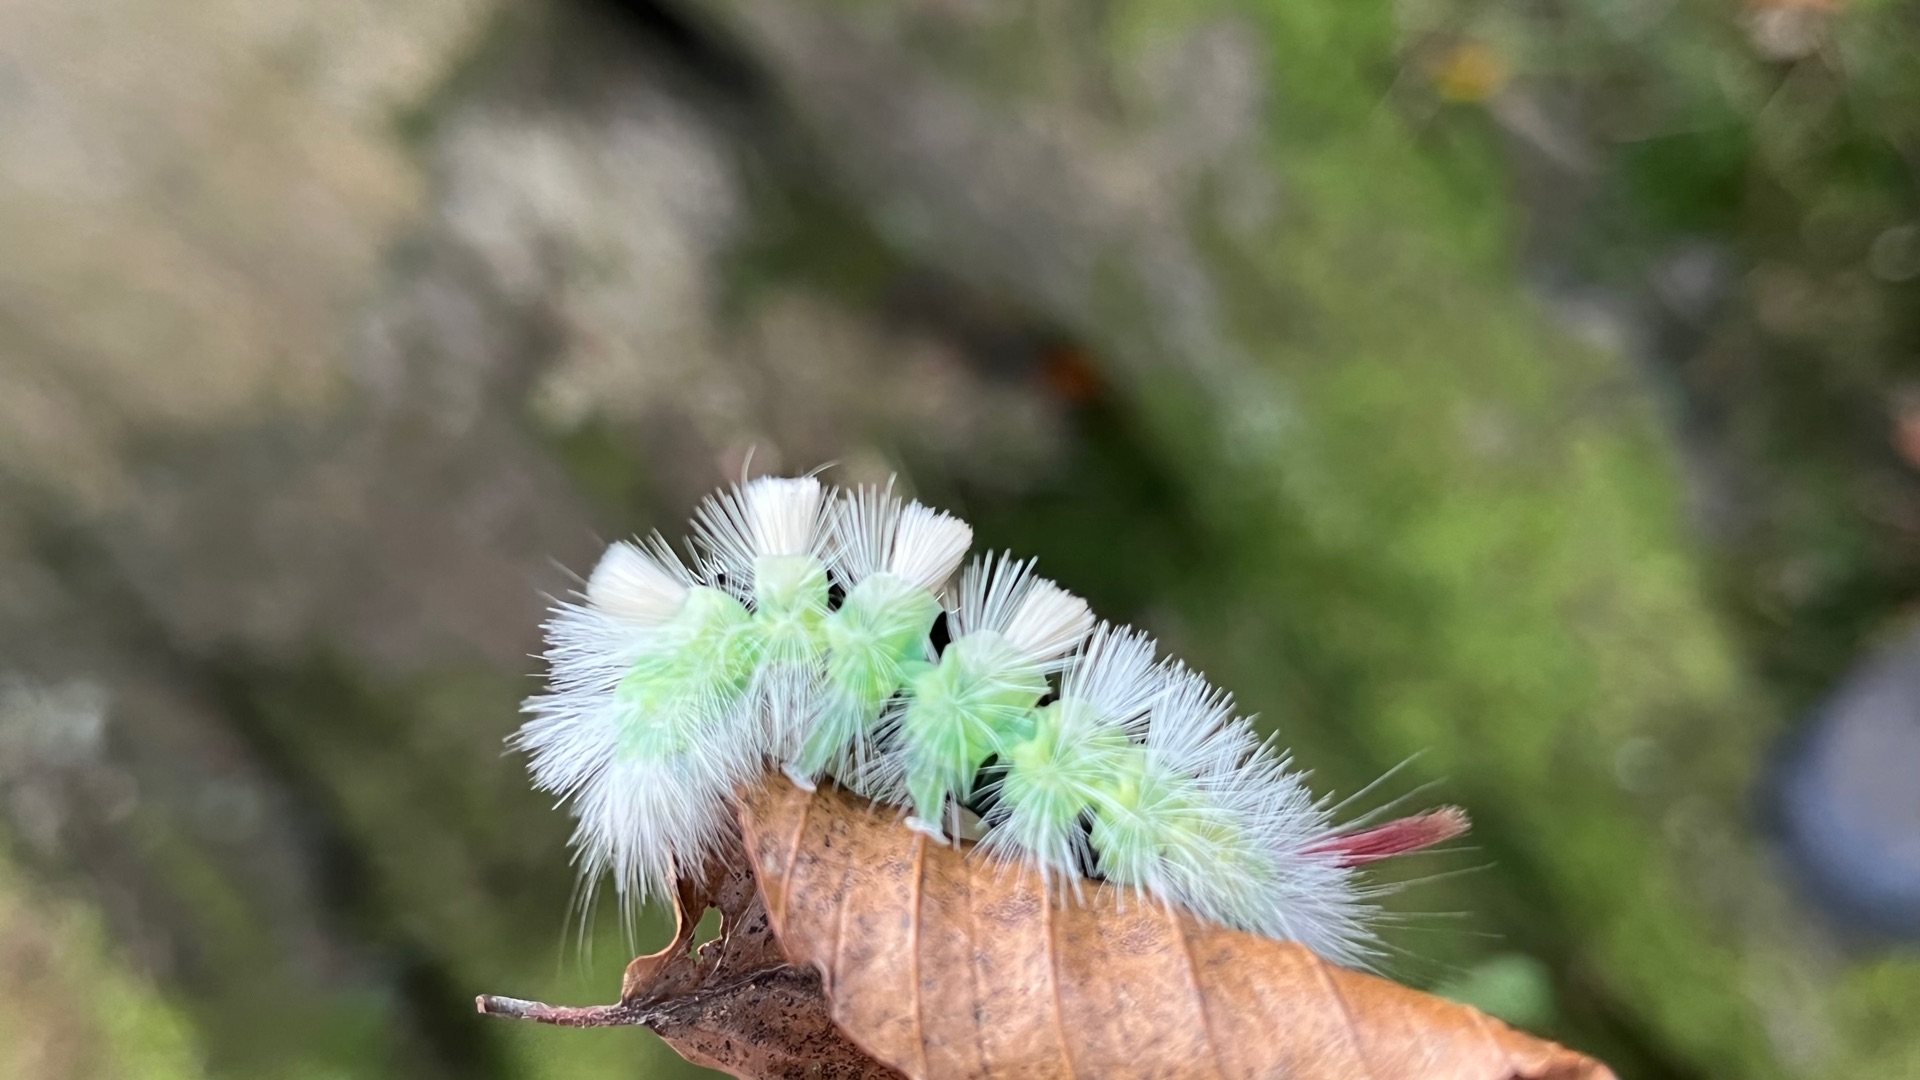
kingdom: Animalia
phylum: Arthropoda
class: Insecta
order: Lepidoptera
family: Erebidae
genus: Calliteara
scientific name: Calliteara pudibunda
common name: Bøgenonne
